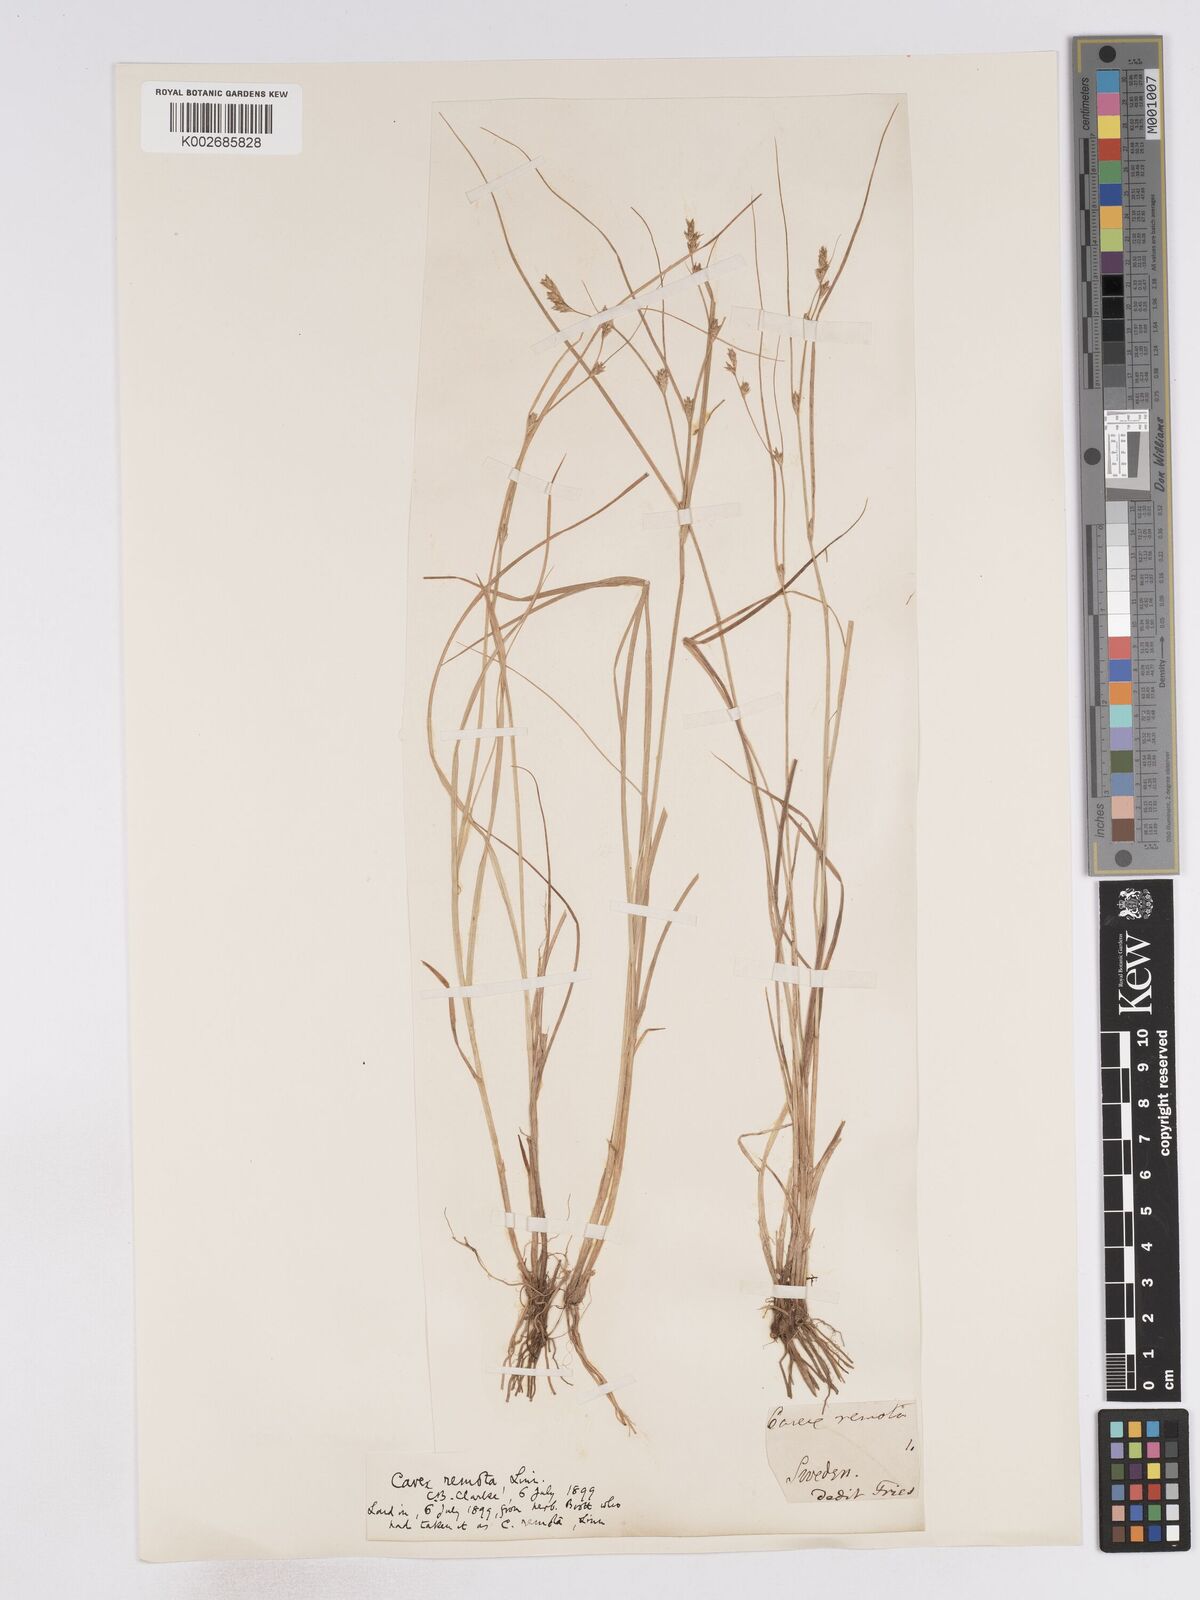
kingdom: Plantae
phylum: Tracheophyta
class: Liliopsida
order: Poales
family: Cyperaceae
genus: Carex
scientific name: Carex remota
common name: Remote sedge
